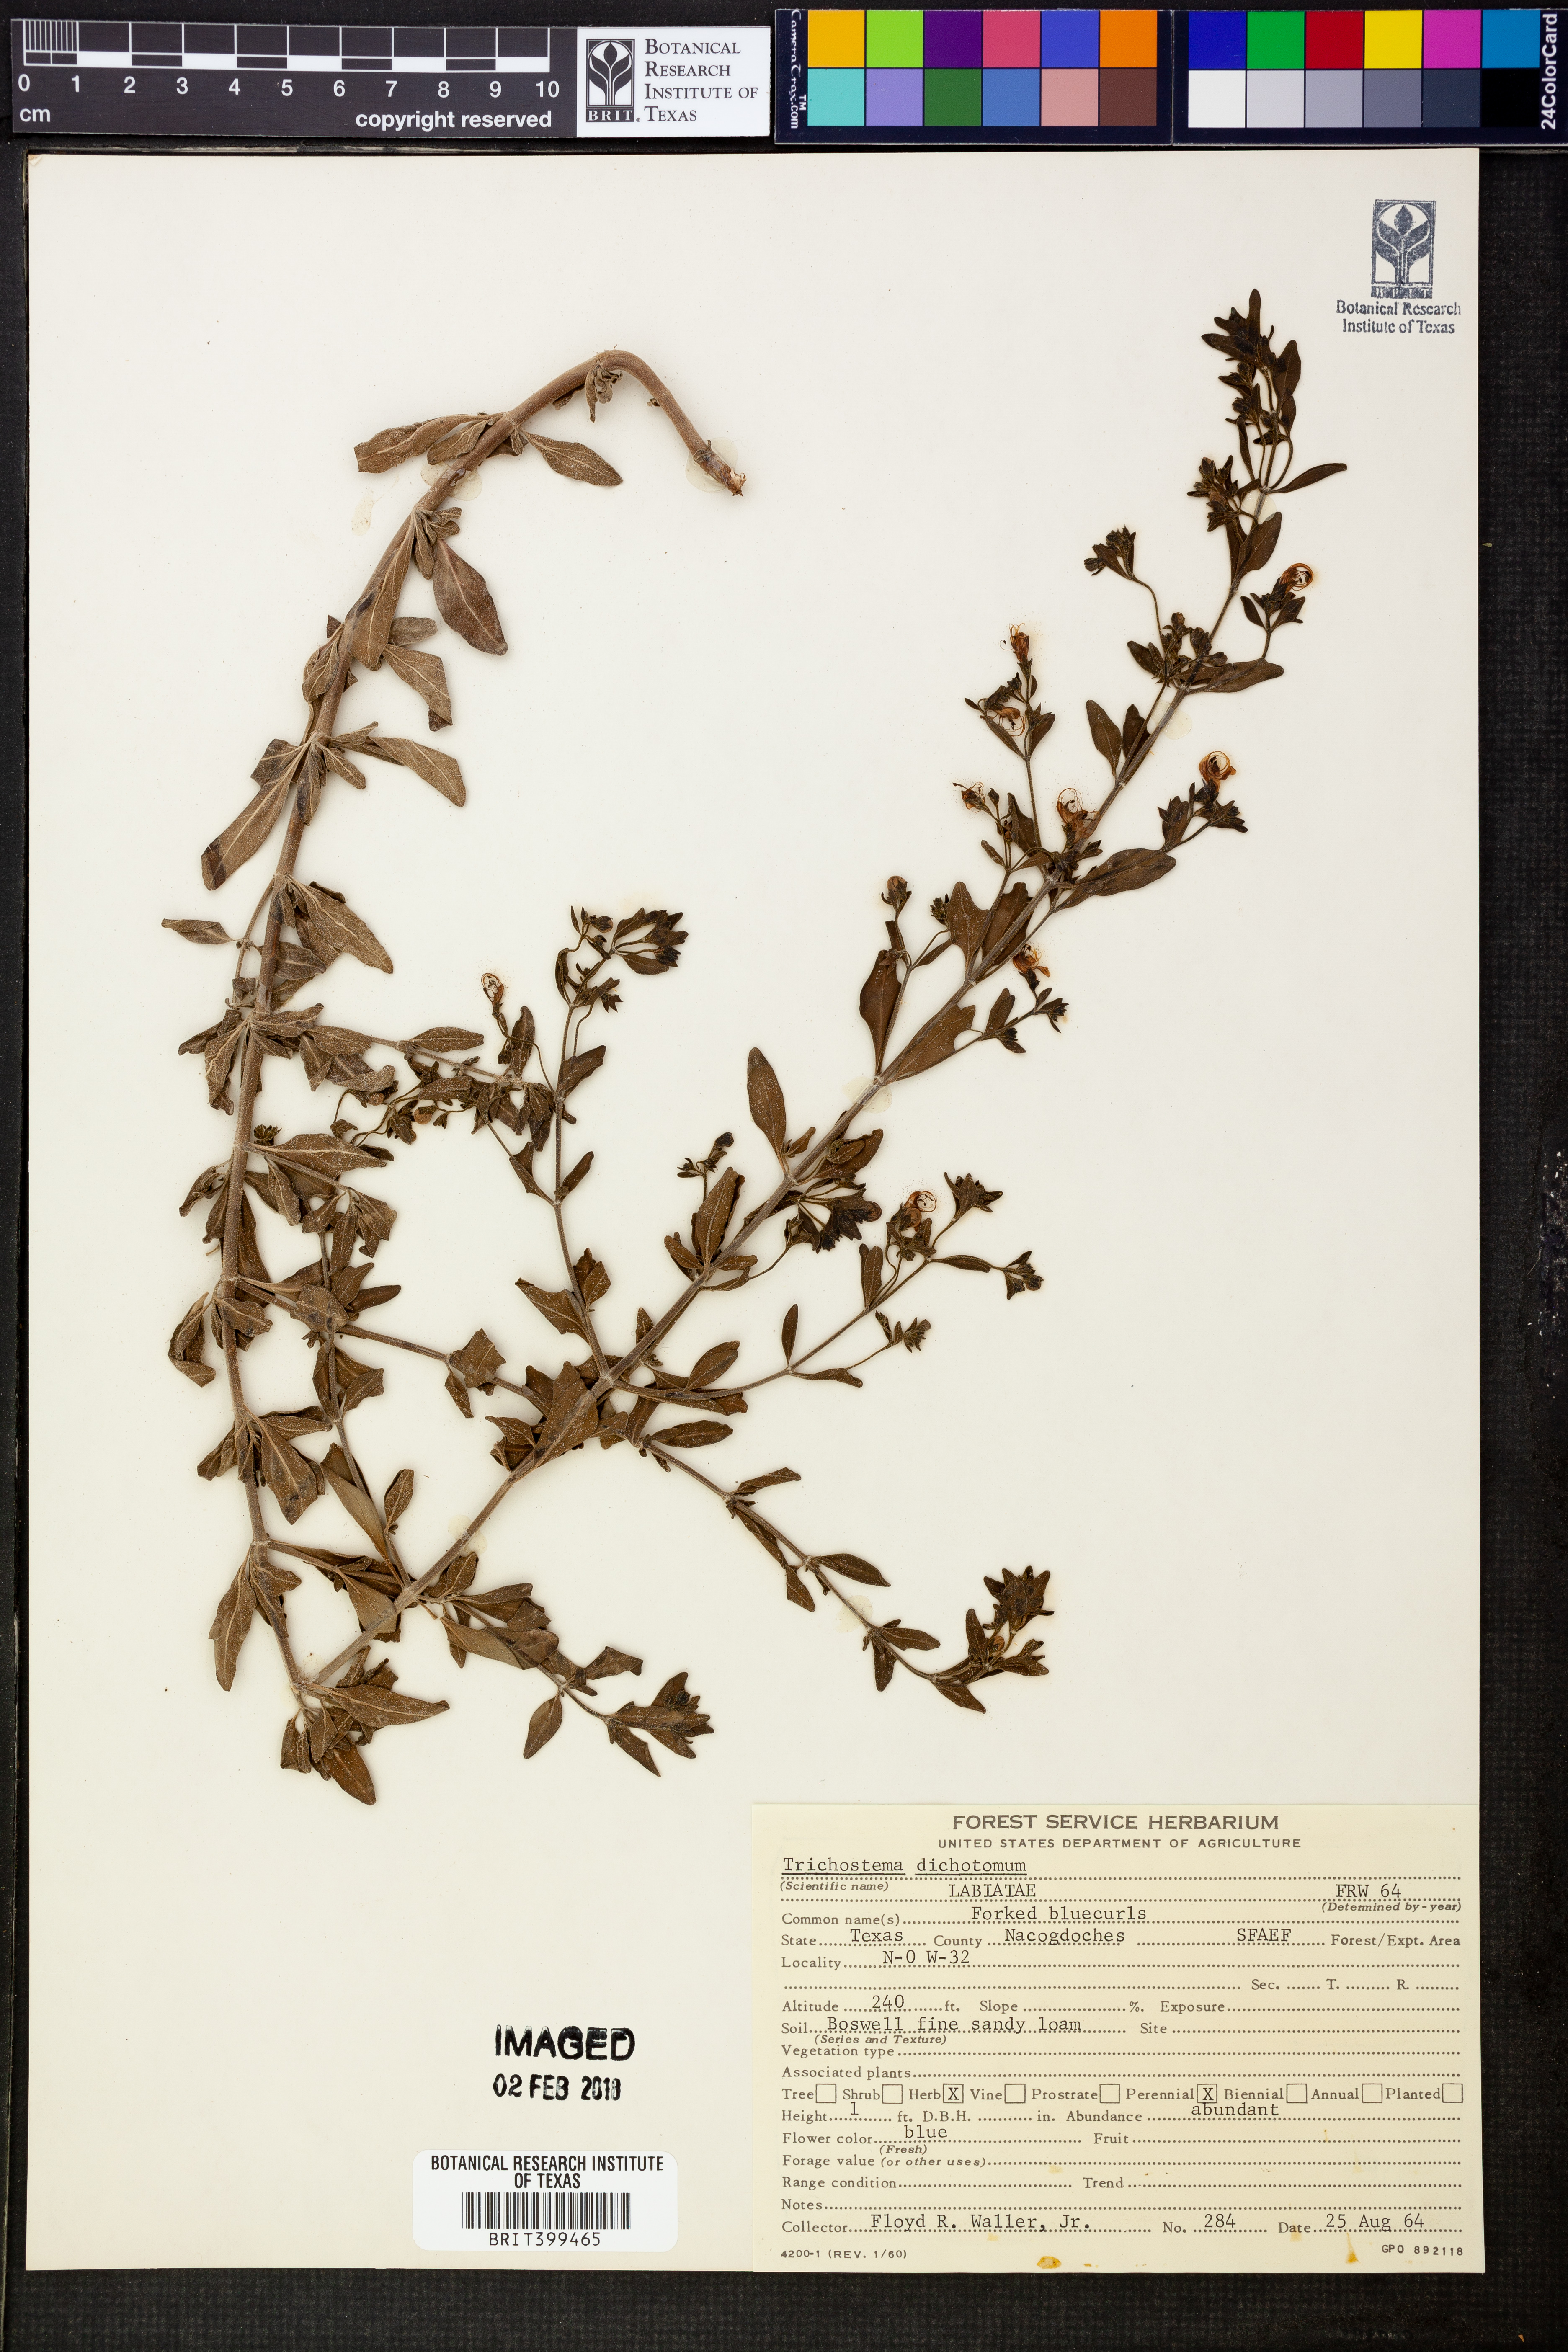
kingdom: Plantae
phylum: Tracheophyta
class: Magnoliopsida
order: Lamiales
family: Lamiaceae
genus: Trichostema
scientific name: Trichostema dichotomum
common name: Bastard pennyroyal
